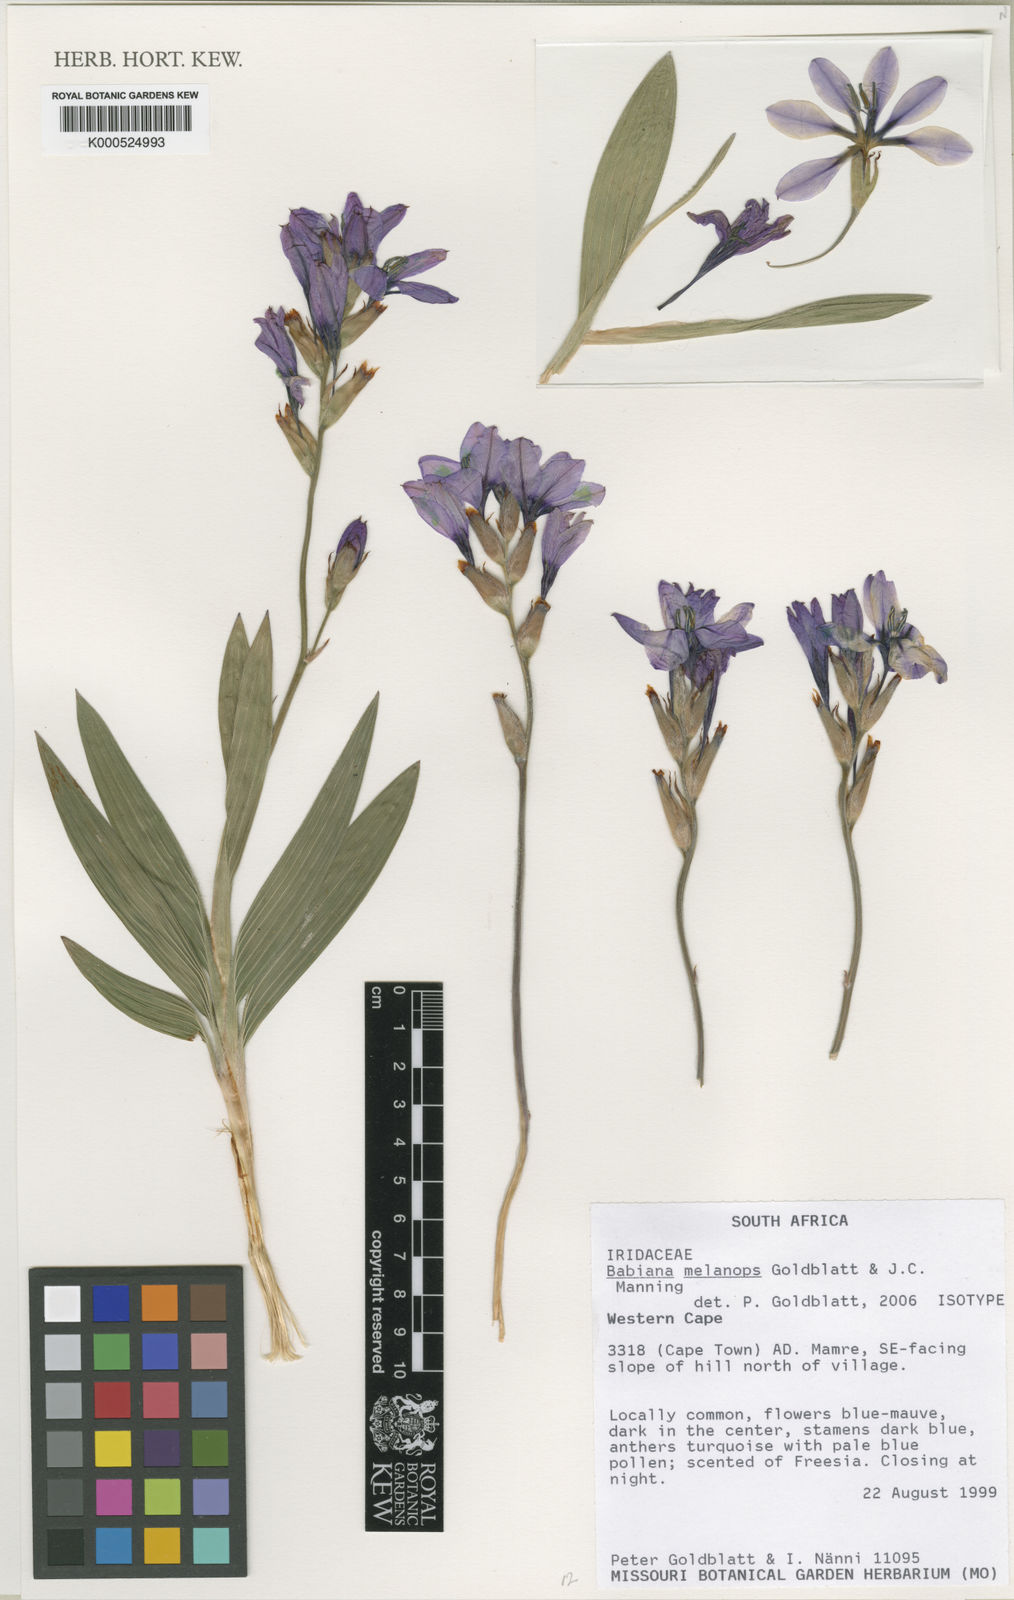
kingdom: Plantae
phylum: Tracheophyta
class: Liliopsida
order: Asparagales
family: Iridaceae
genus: Babiana
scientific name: Babiana melanops
